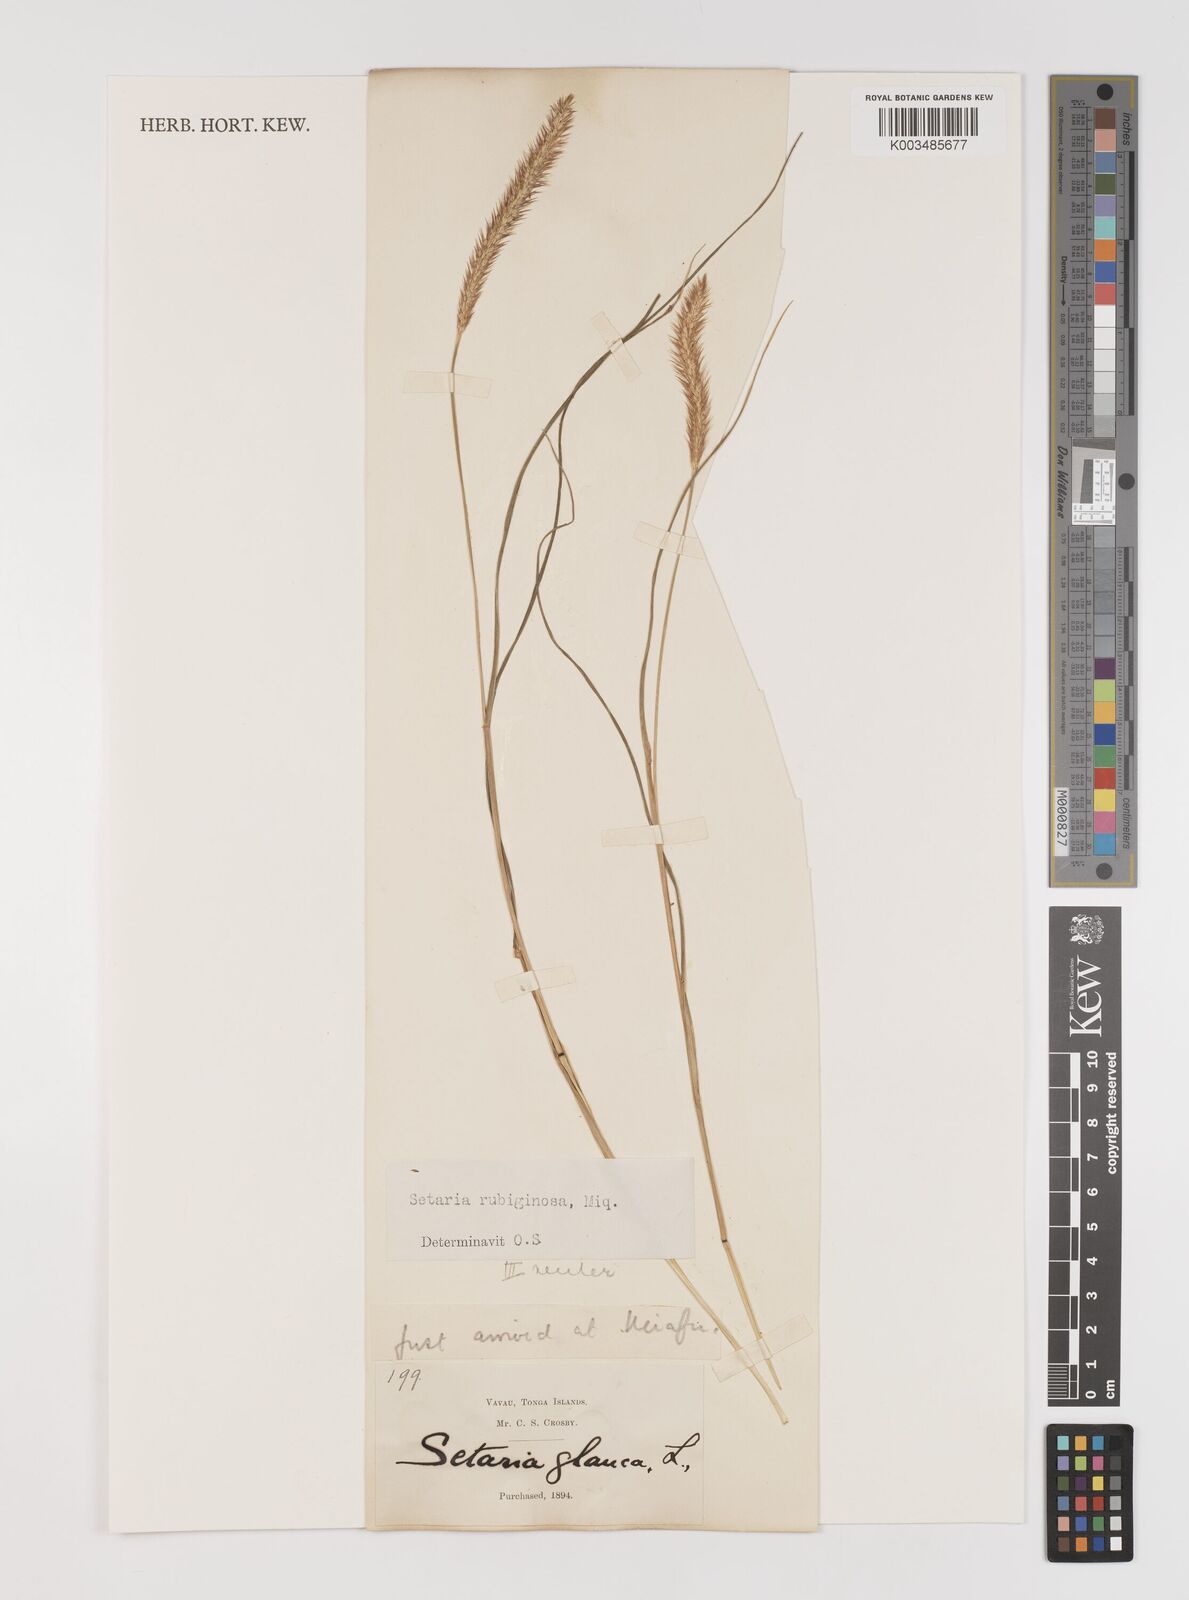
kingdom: Plantae
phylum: Tracheophyta
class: Liliopsida
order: Poales
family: Poaceae
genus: Setaria
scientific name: Setaria pumila
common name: Yellow bristle-grass
